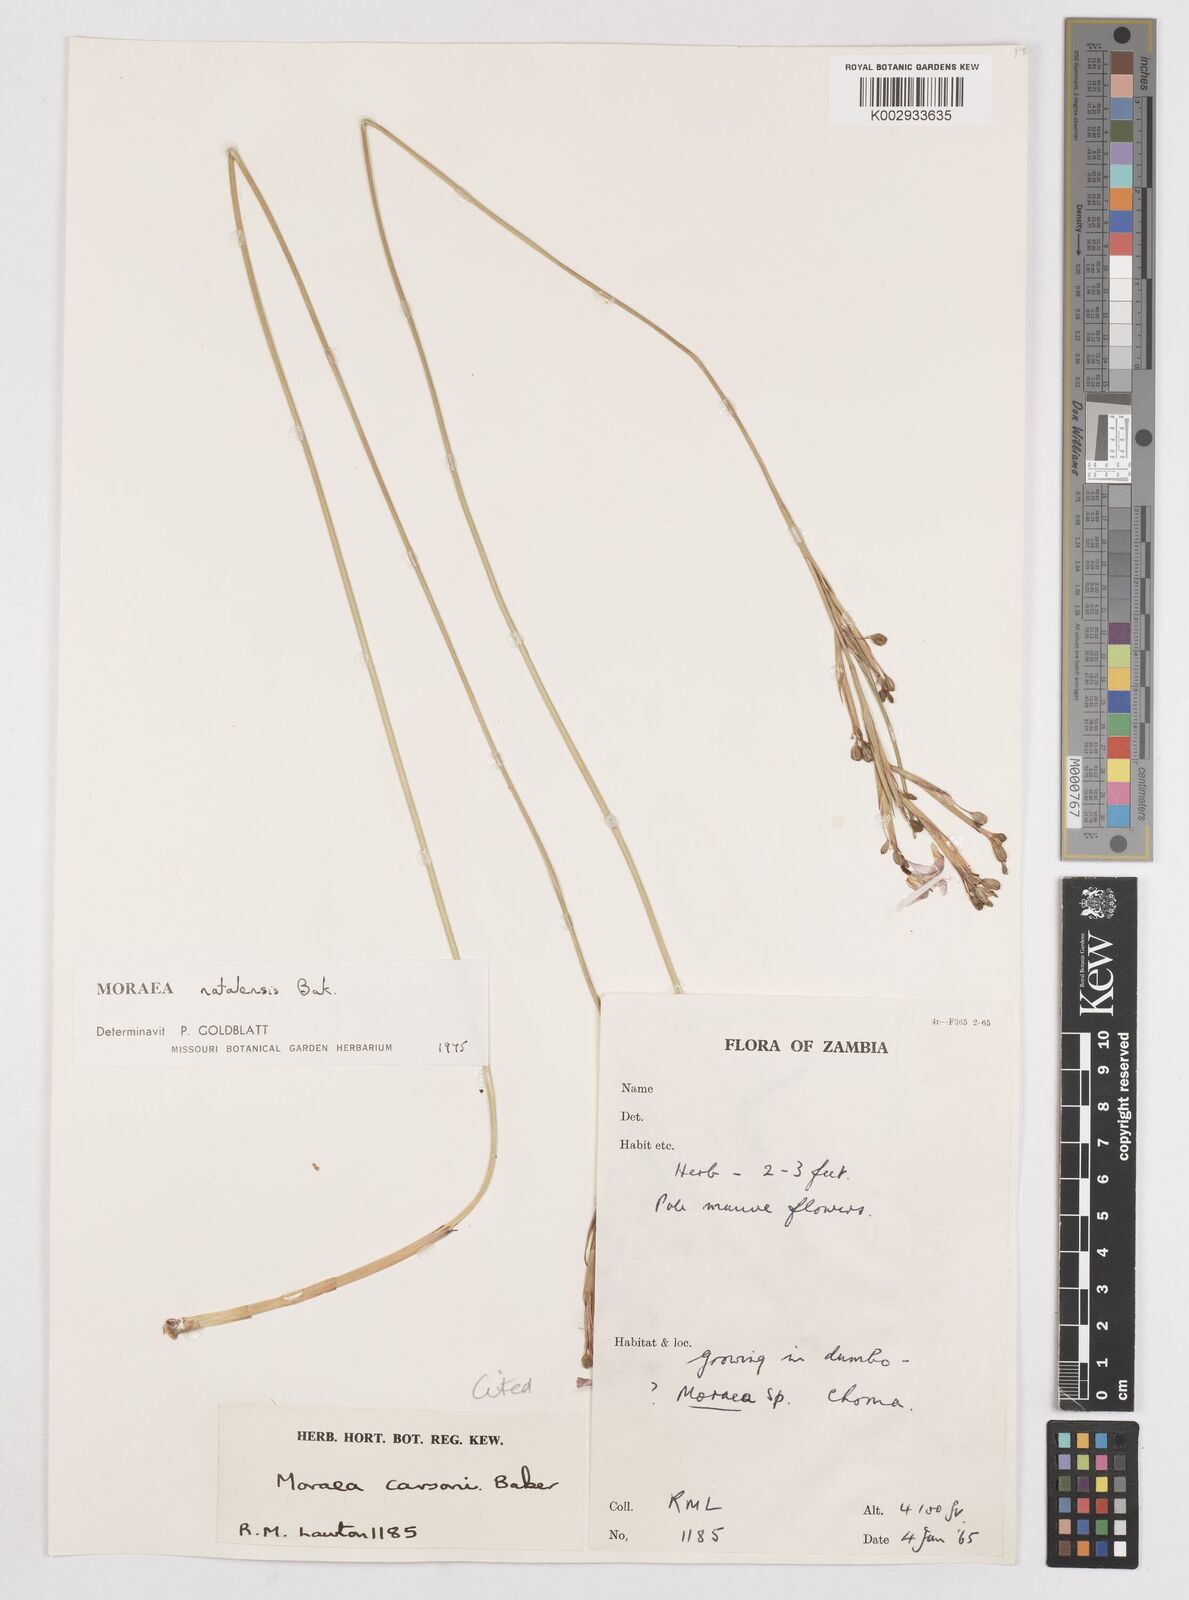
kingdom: Plantae
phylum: Tracheophyta
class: Liliopsida
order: Asparagales
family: Iridaceae
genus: Moraea
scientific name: Moraea natalensis
